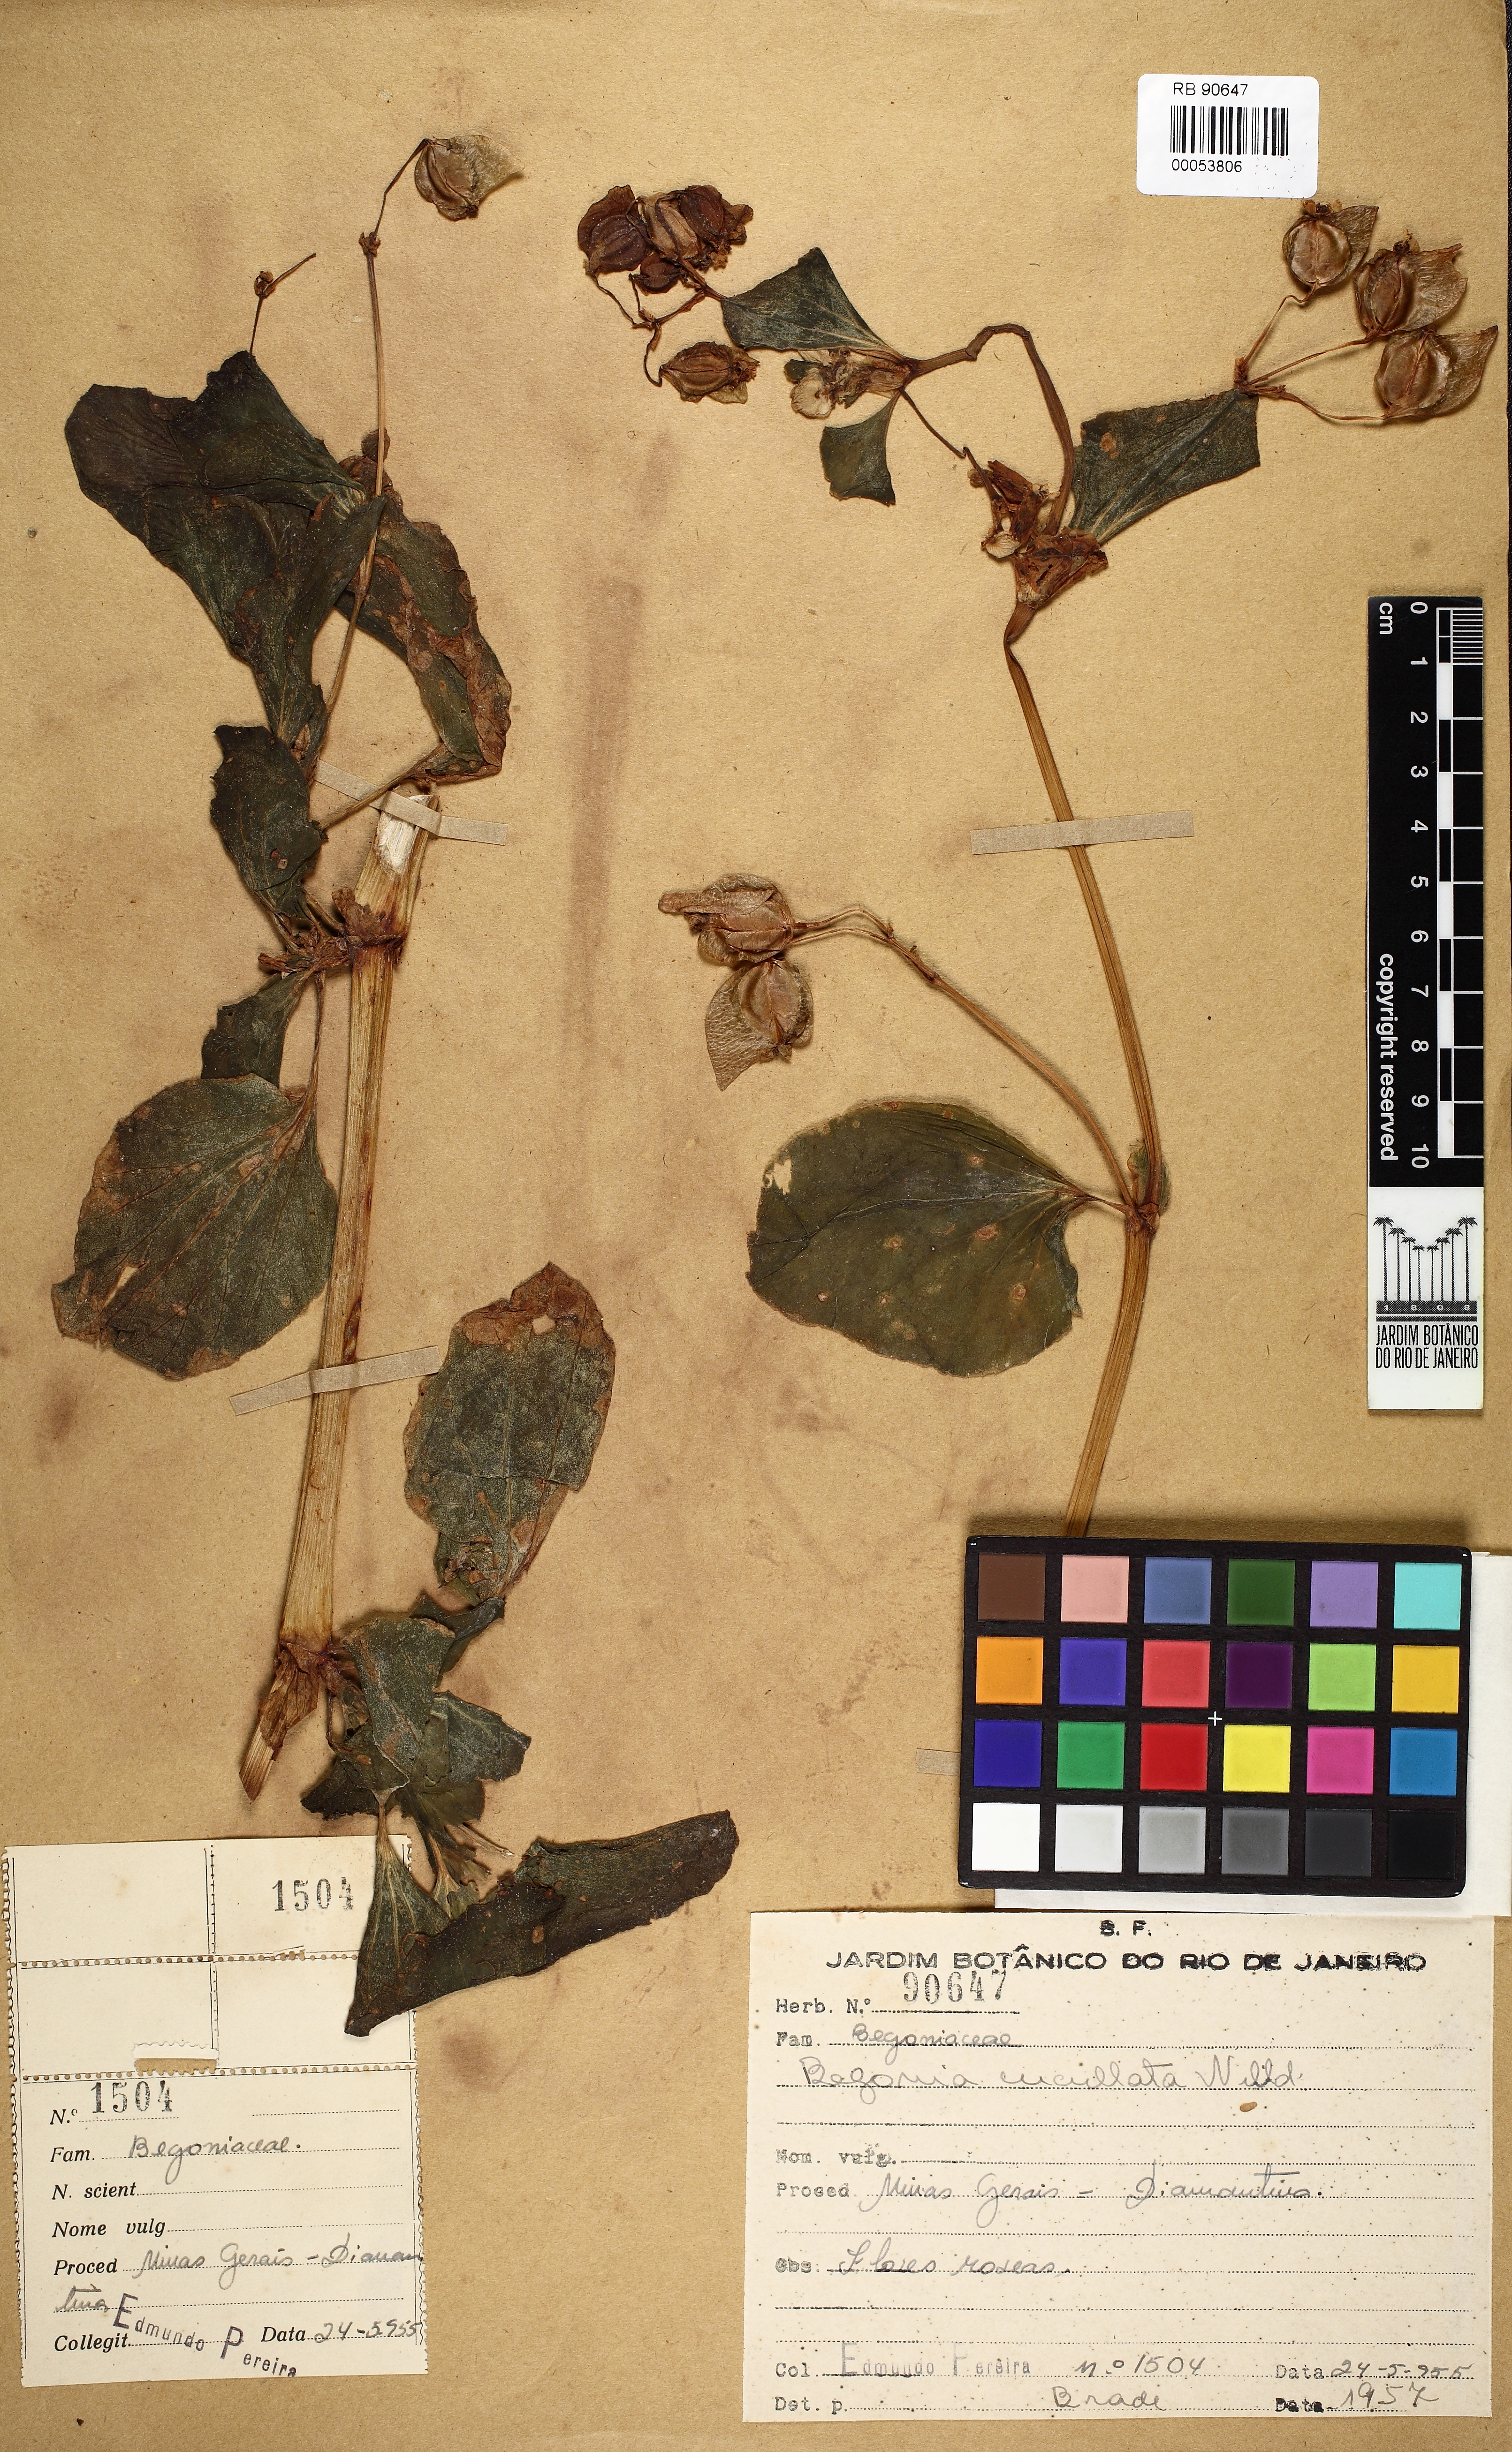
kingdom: Plantae
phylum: Tracheophyta
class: Magnoliopsida
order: Cucurbitales
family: Begoniaceae
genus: Begonia
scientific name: Begonia cucullata
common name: Clubbed begonia
